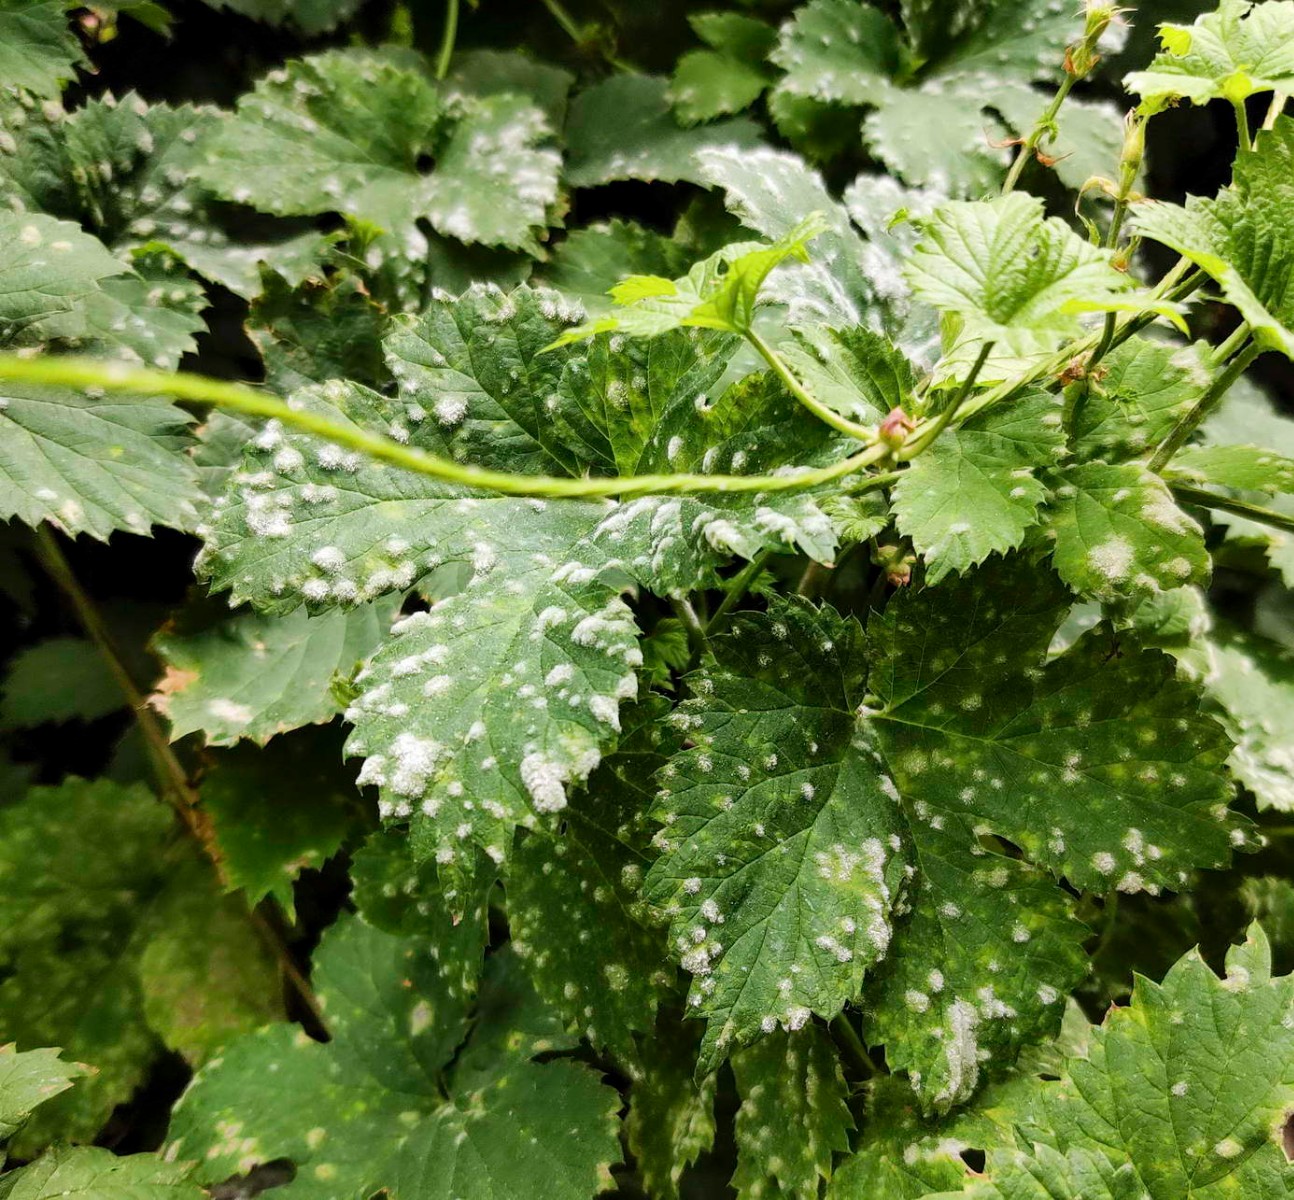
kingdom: Fungi
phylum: Ascomycota
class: Leotiomycetes
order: Helotiales
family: Erysiphaceae
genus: Podosphaera
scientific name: Podosphaera macularis
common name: Powdery mildew
